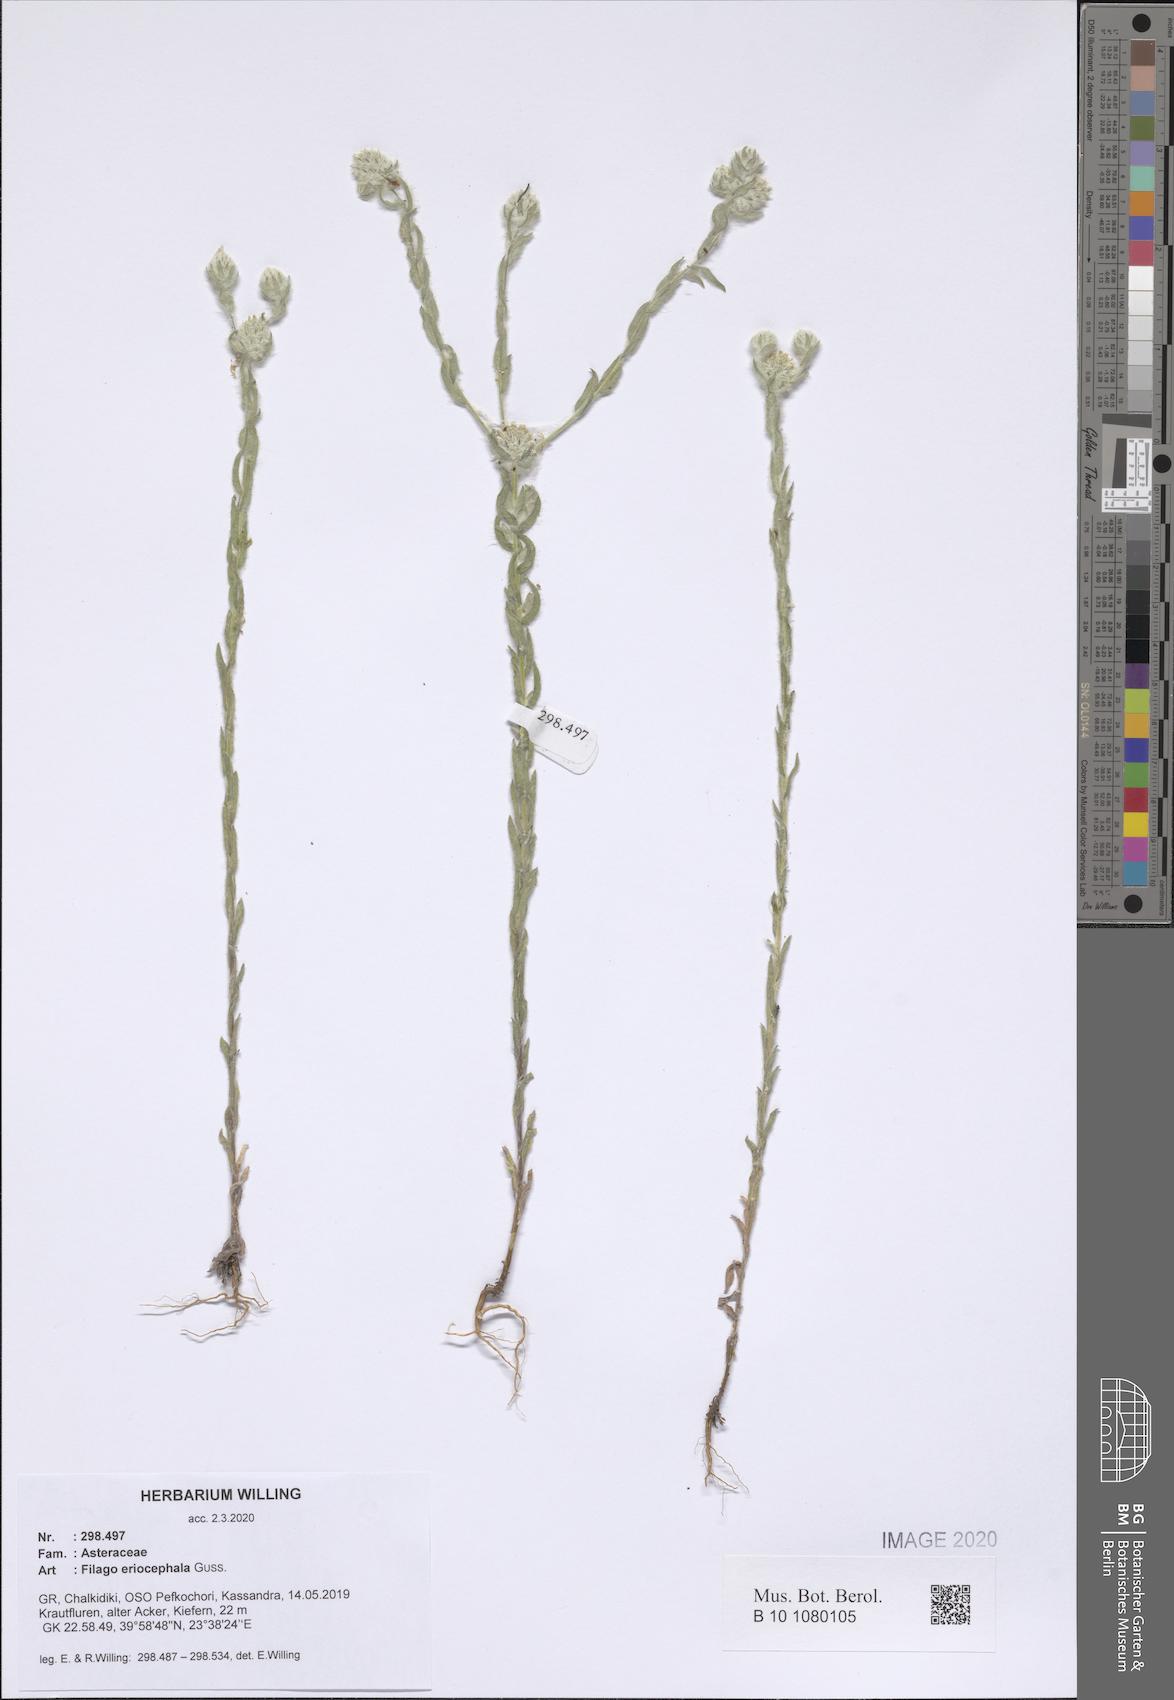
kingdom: Plantae
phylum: Tracheophyta
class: Magnoliopsida
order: Asterales
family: Asteraceae
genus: Filago
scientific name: Filago eriocephala
